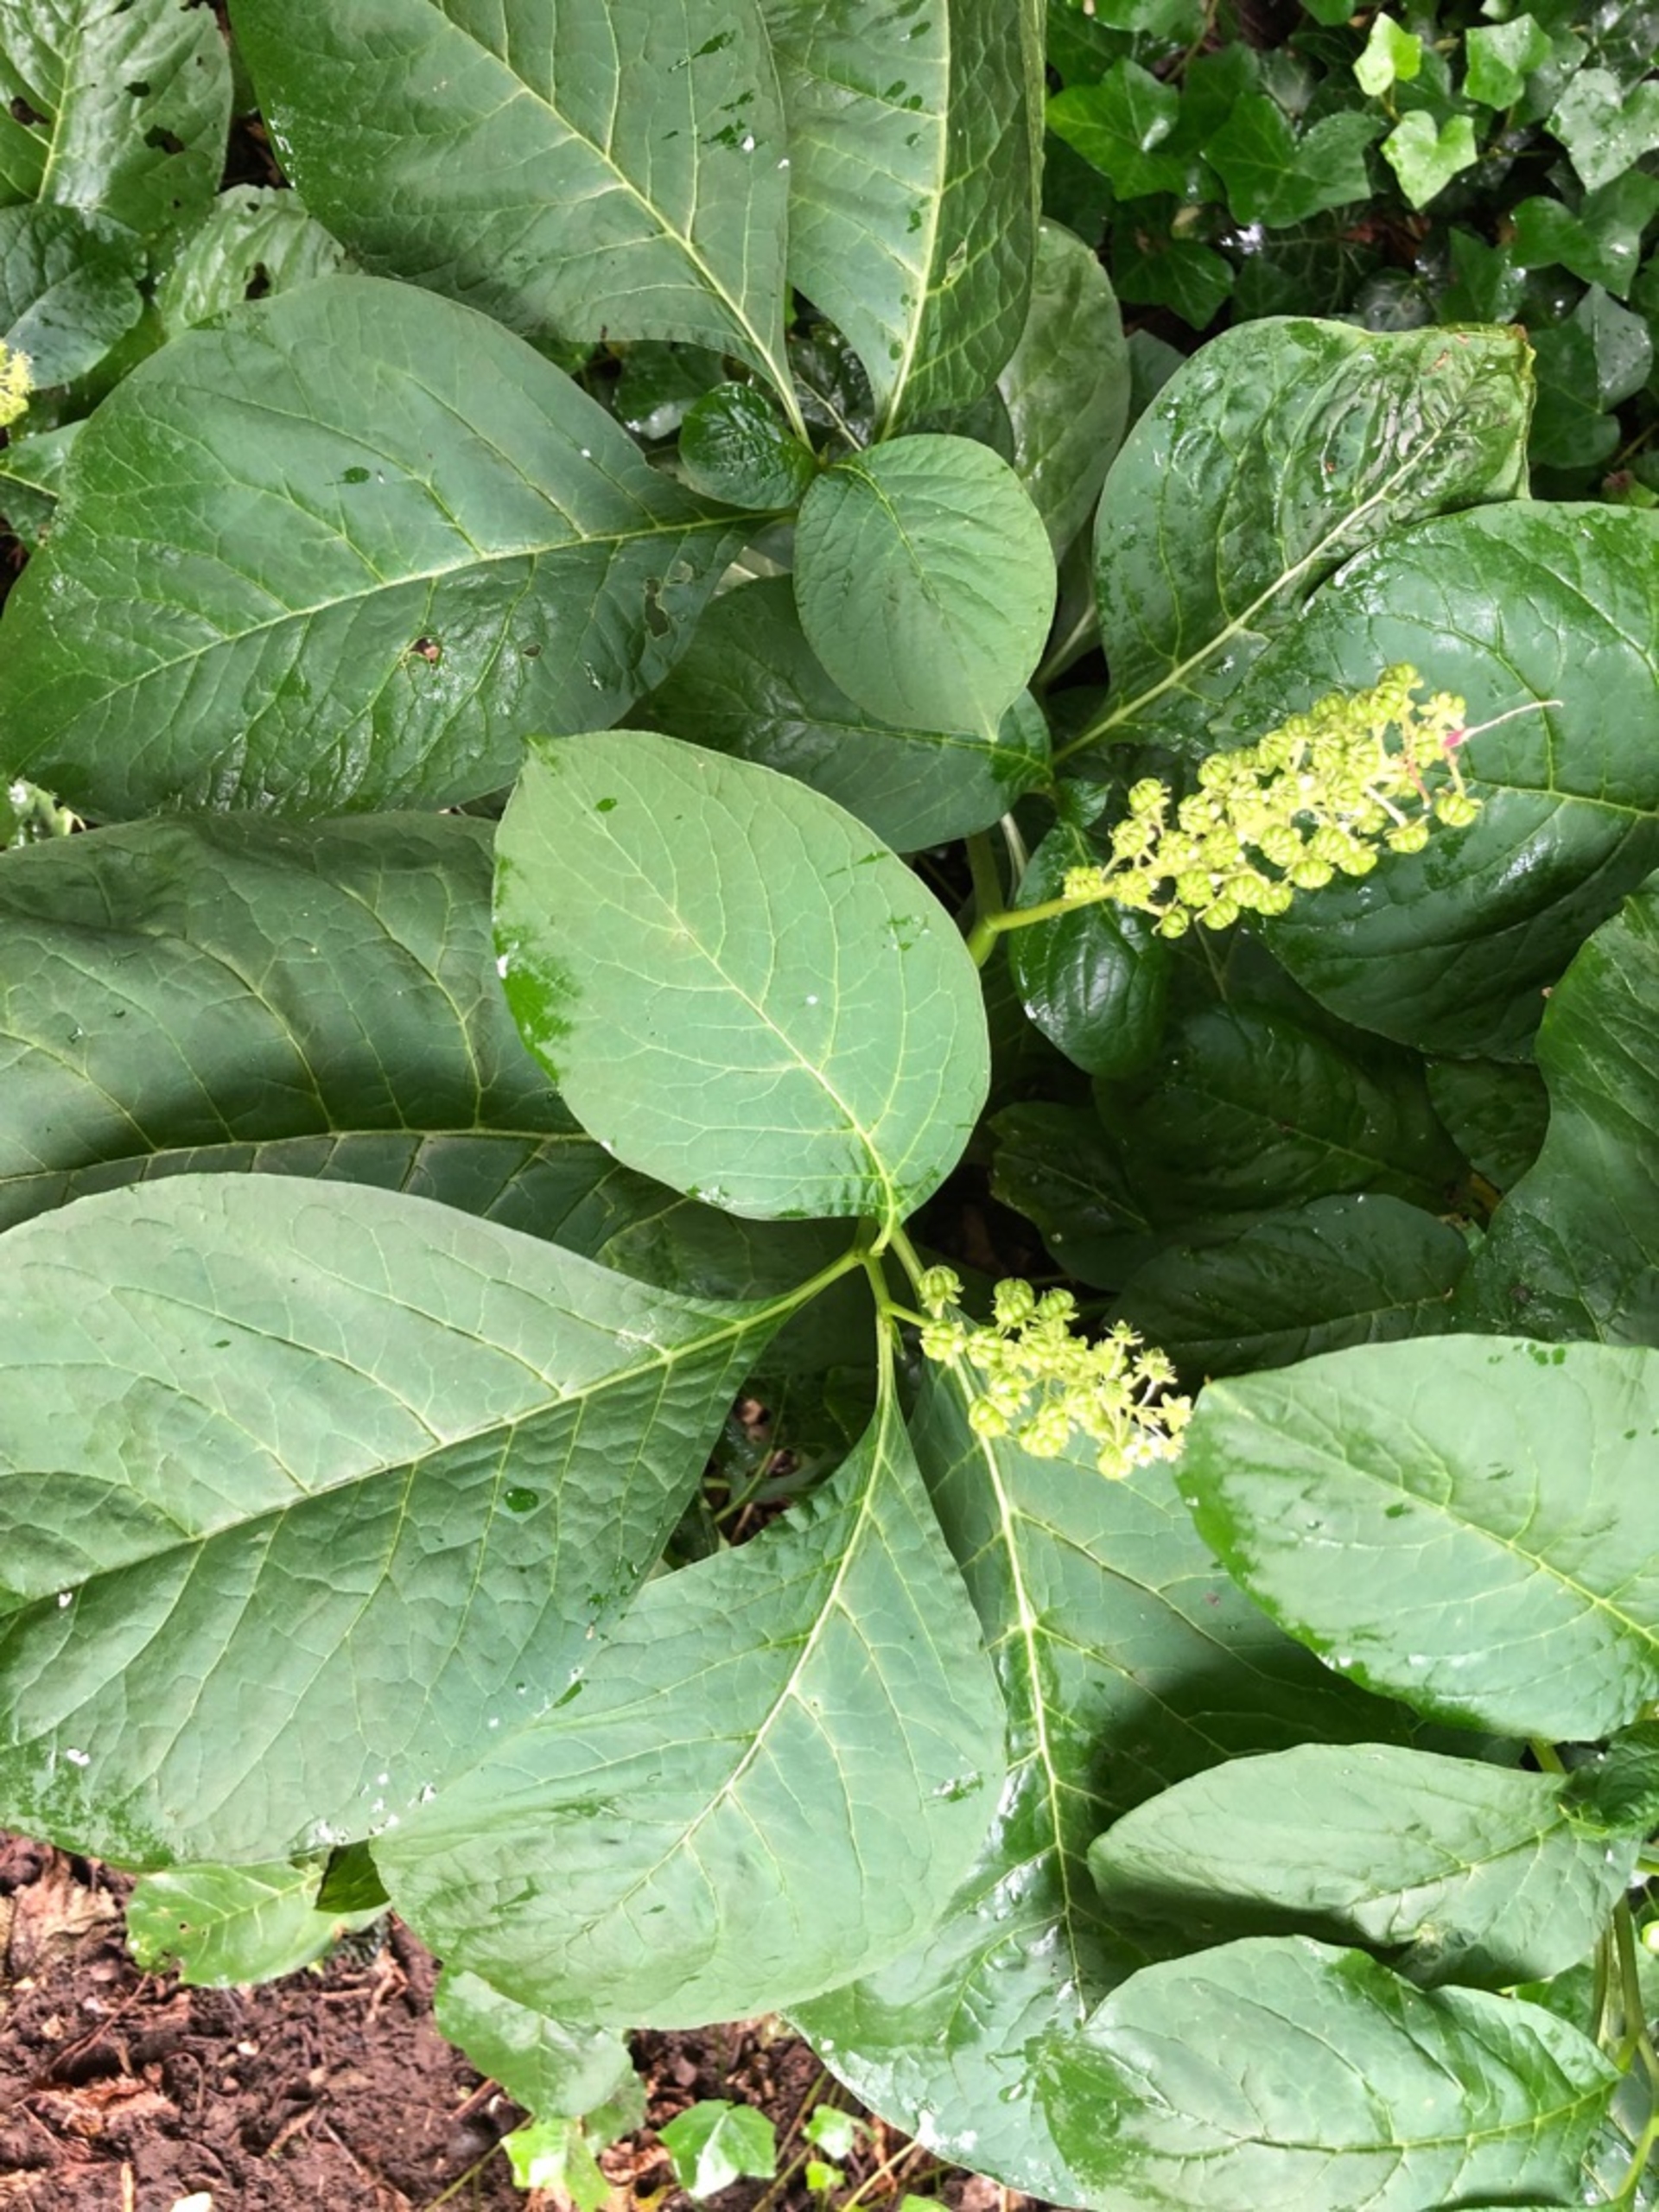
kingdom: Plantae
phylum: Tracheophyta
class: Magnoliopsida
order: Caryophyllales
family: Phytolaccaceae
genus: Phytolacca
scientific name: Phytolacca acinosa
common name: Asiatisk kermesbær
